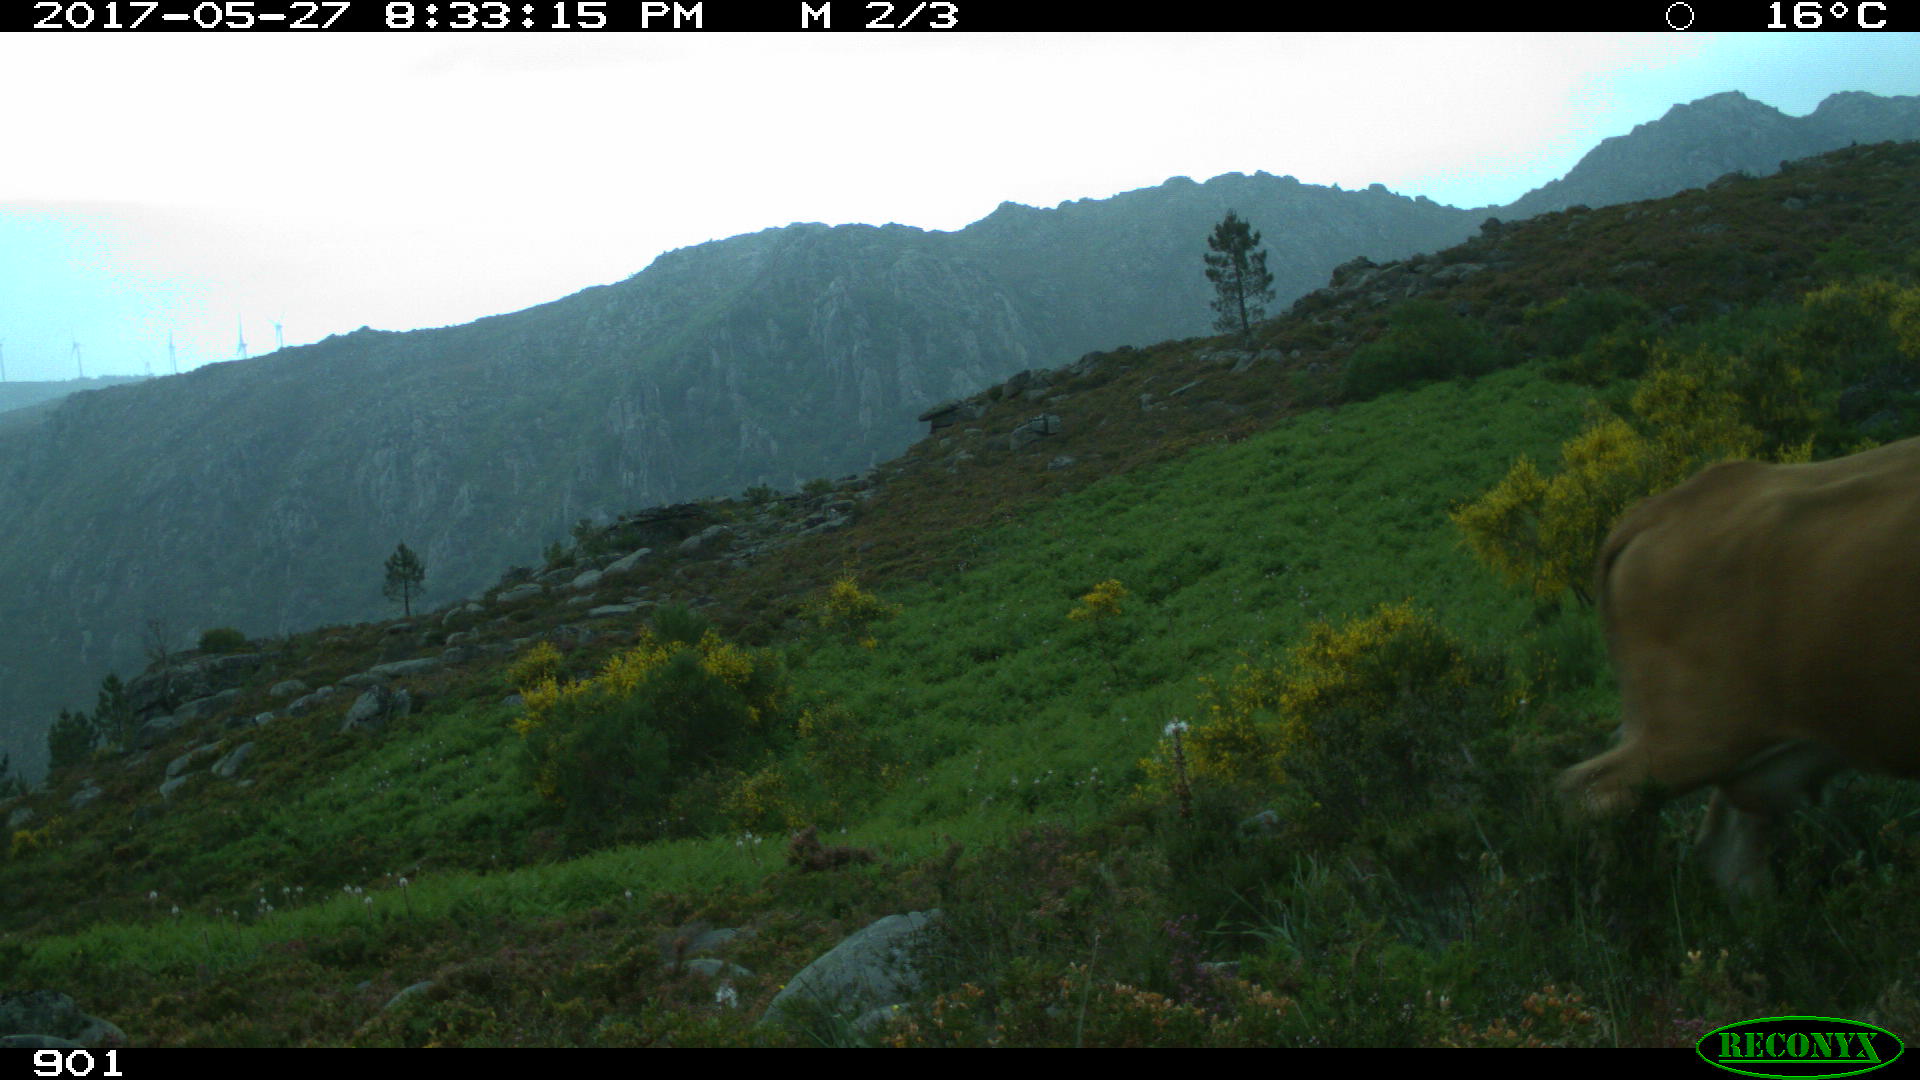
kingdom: Animalia
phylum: Chordata
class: Mammalia
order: Artiodactyla
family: Bovidae
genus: Bos
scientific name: Bos taurus
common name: Domesticated cattle
